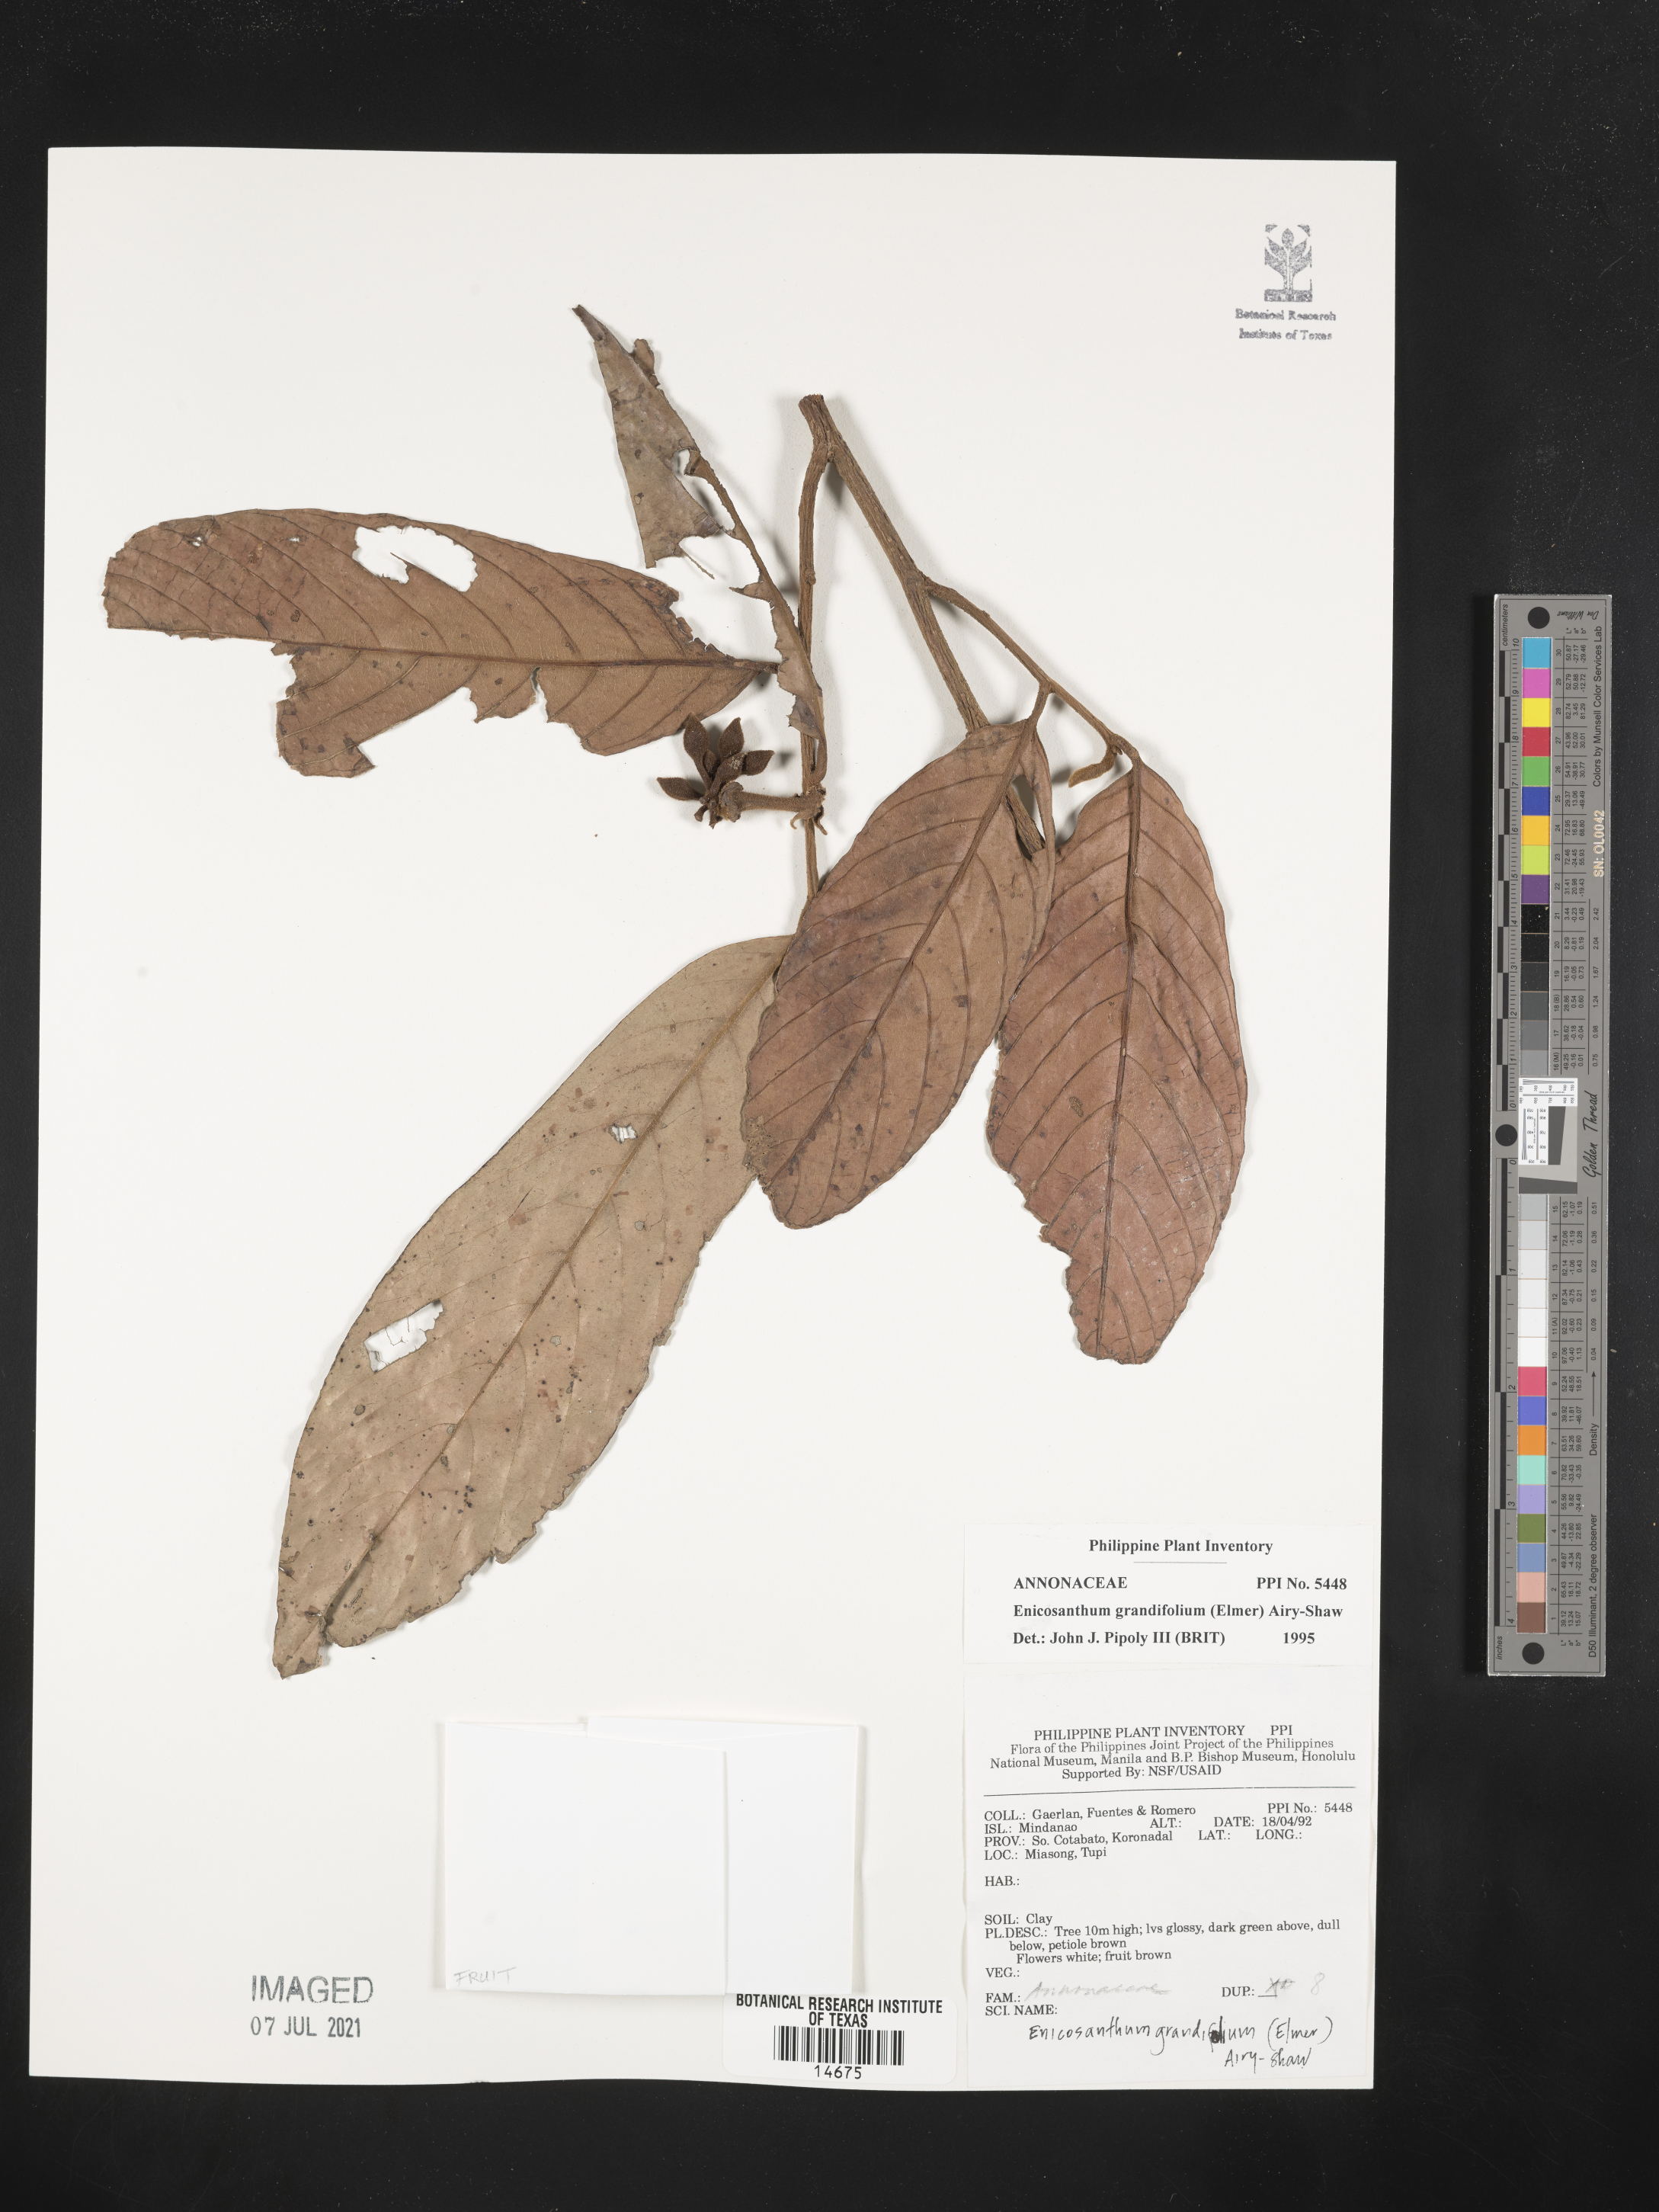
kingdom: Plantae
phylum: Tracheophyta
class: Magnoliopsida
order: Magnoliales
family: Annonaceae
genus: Enicosanthum
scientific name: Enicosanthum grandifolium
